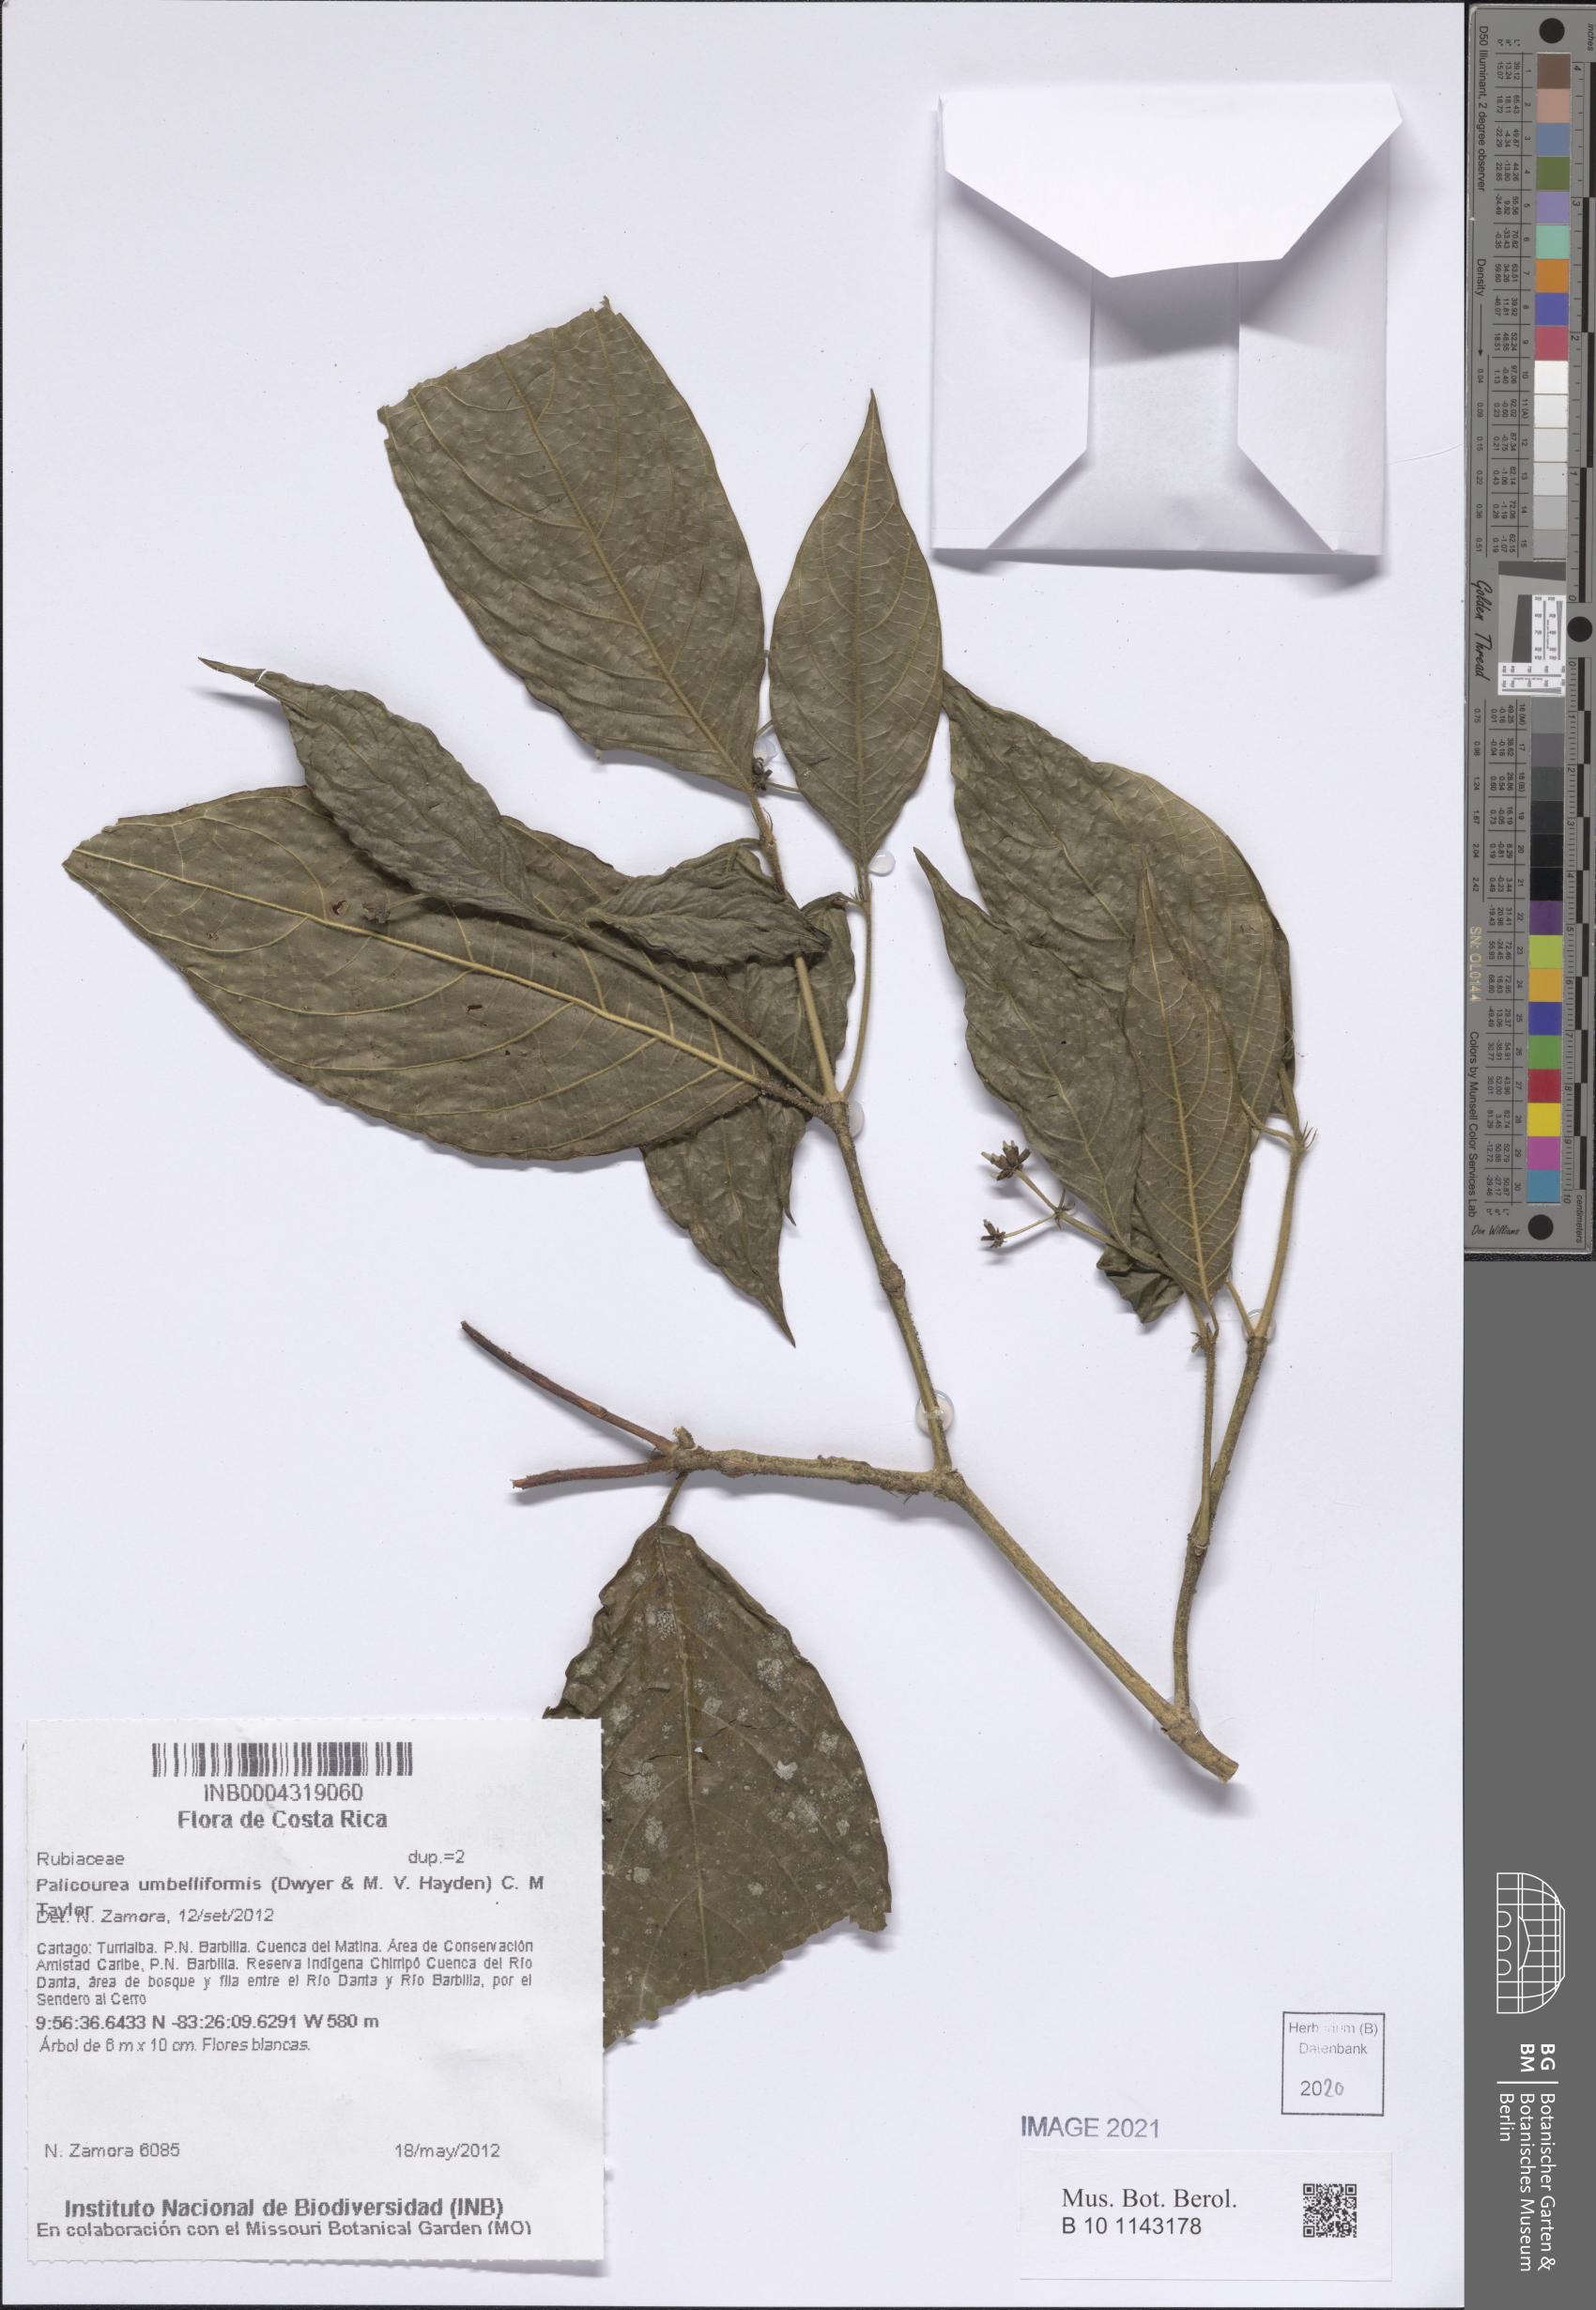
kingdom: Plantae
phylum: Tracheophyta
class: Magnoliopsida
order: Gentianales
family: Rubiaceae
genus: Palicourea
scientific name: Palicourea umbelliformis
